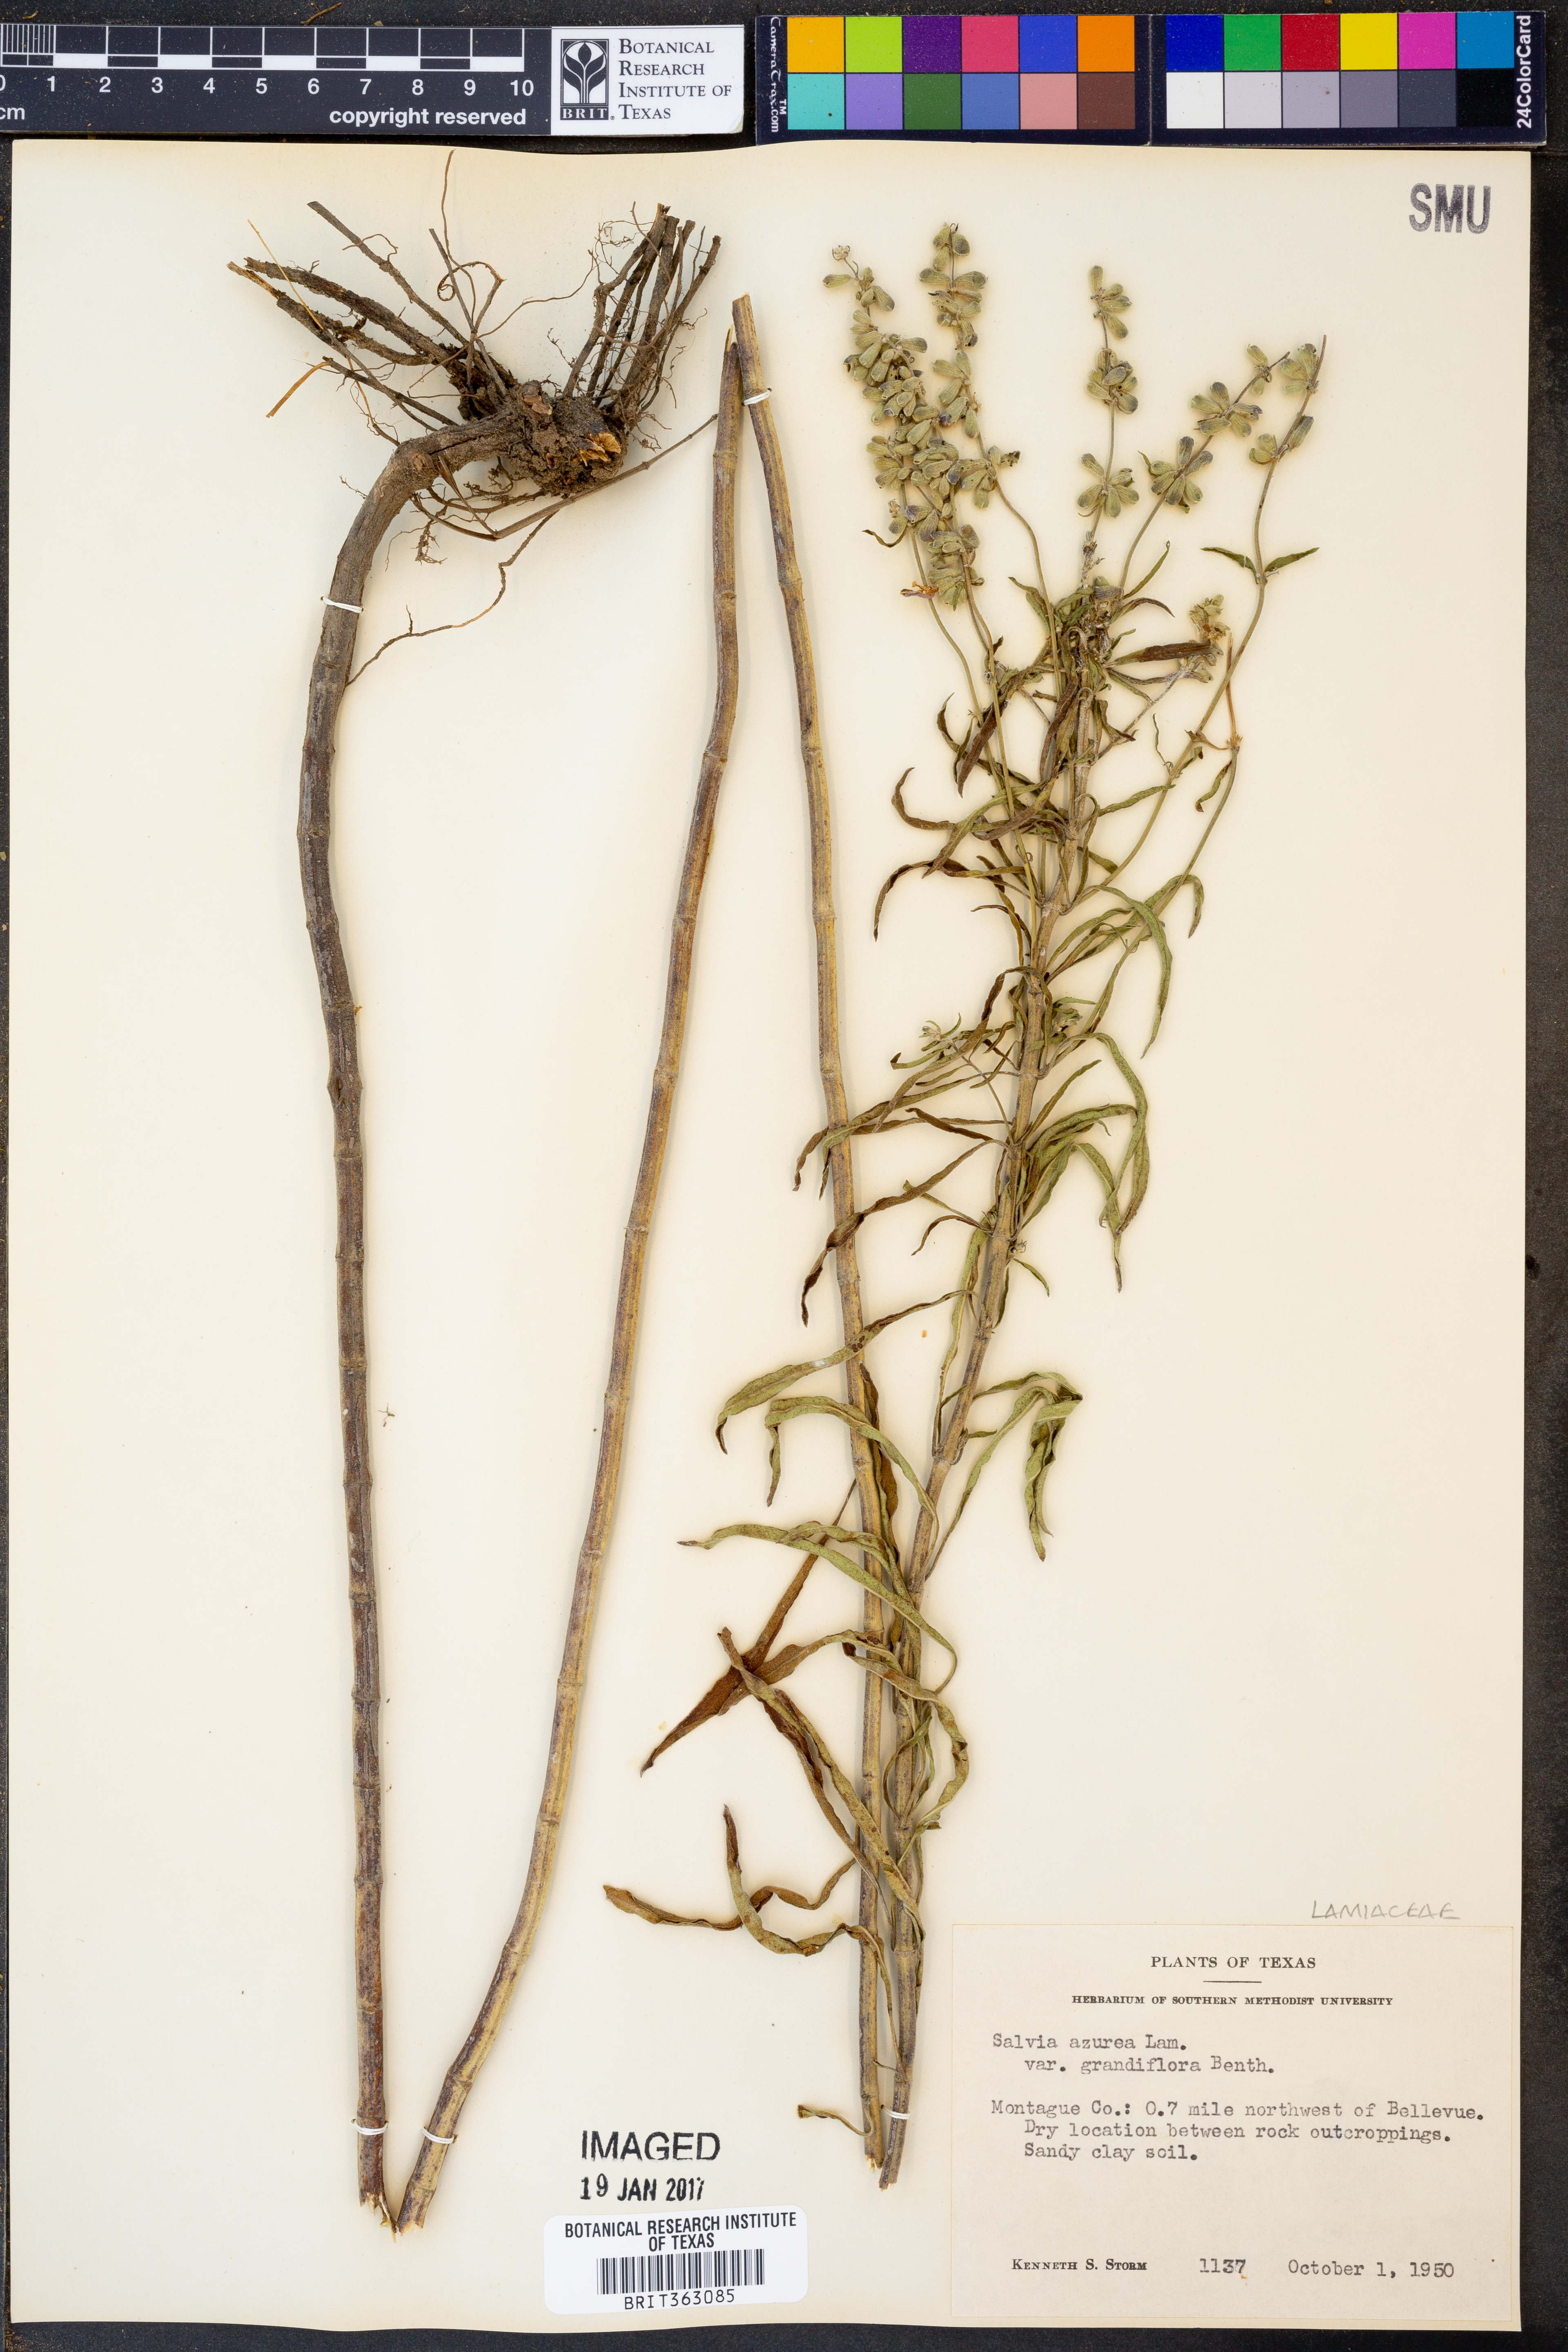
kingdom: Plantae
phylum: Tracheophyta
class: Magnoliopsida
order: Lamiales
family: Lamiaceae
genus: Salvia
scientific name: Salvia azurea
